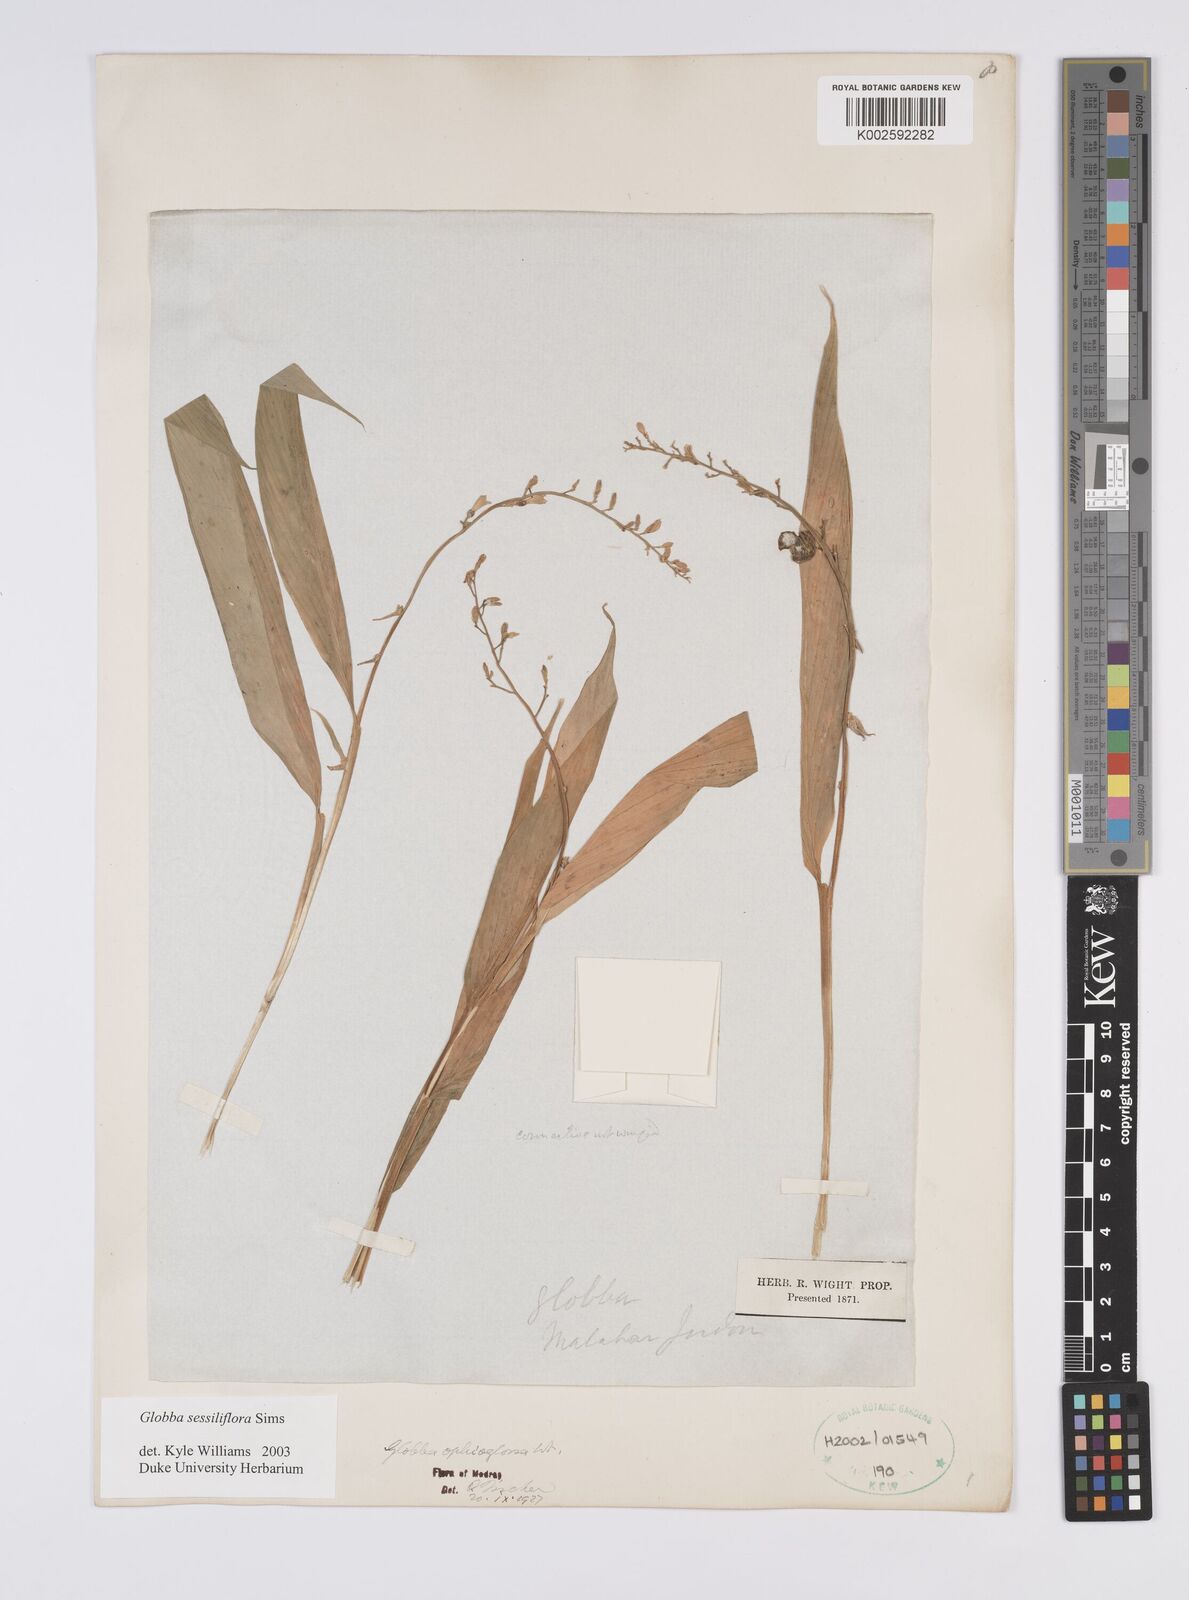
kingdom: Plantae
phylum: Tracheophyta
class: Liliopsida
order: Zingiberales
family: Zingiberaceae
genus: Globba
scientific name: Globba sessiliflora
